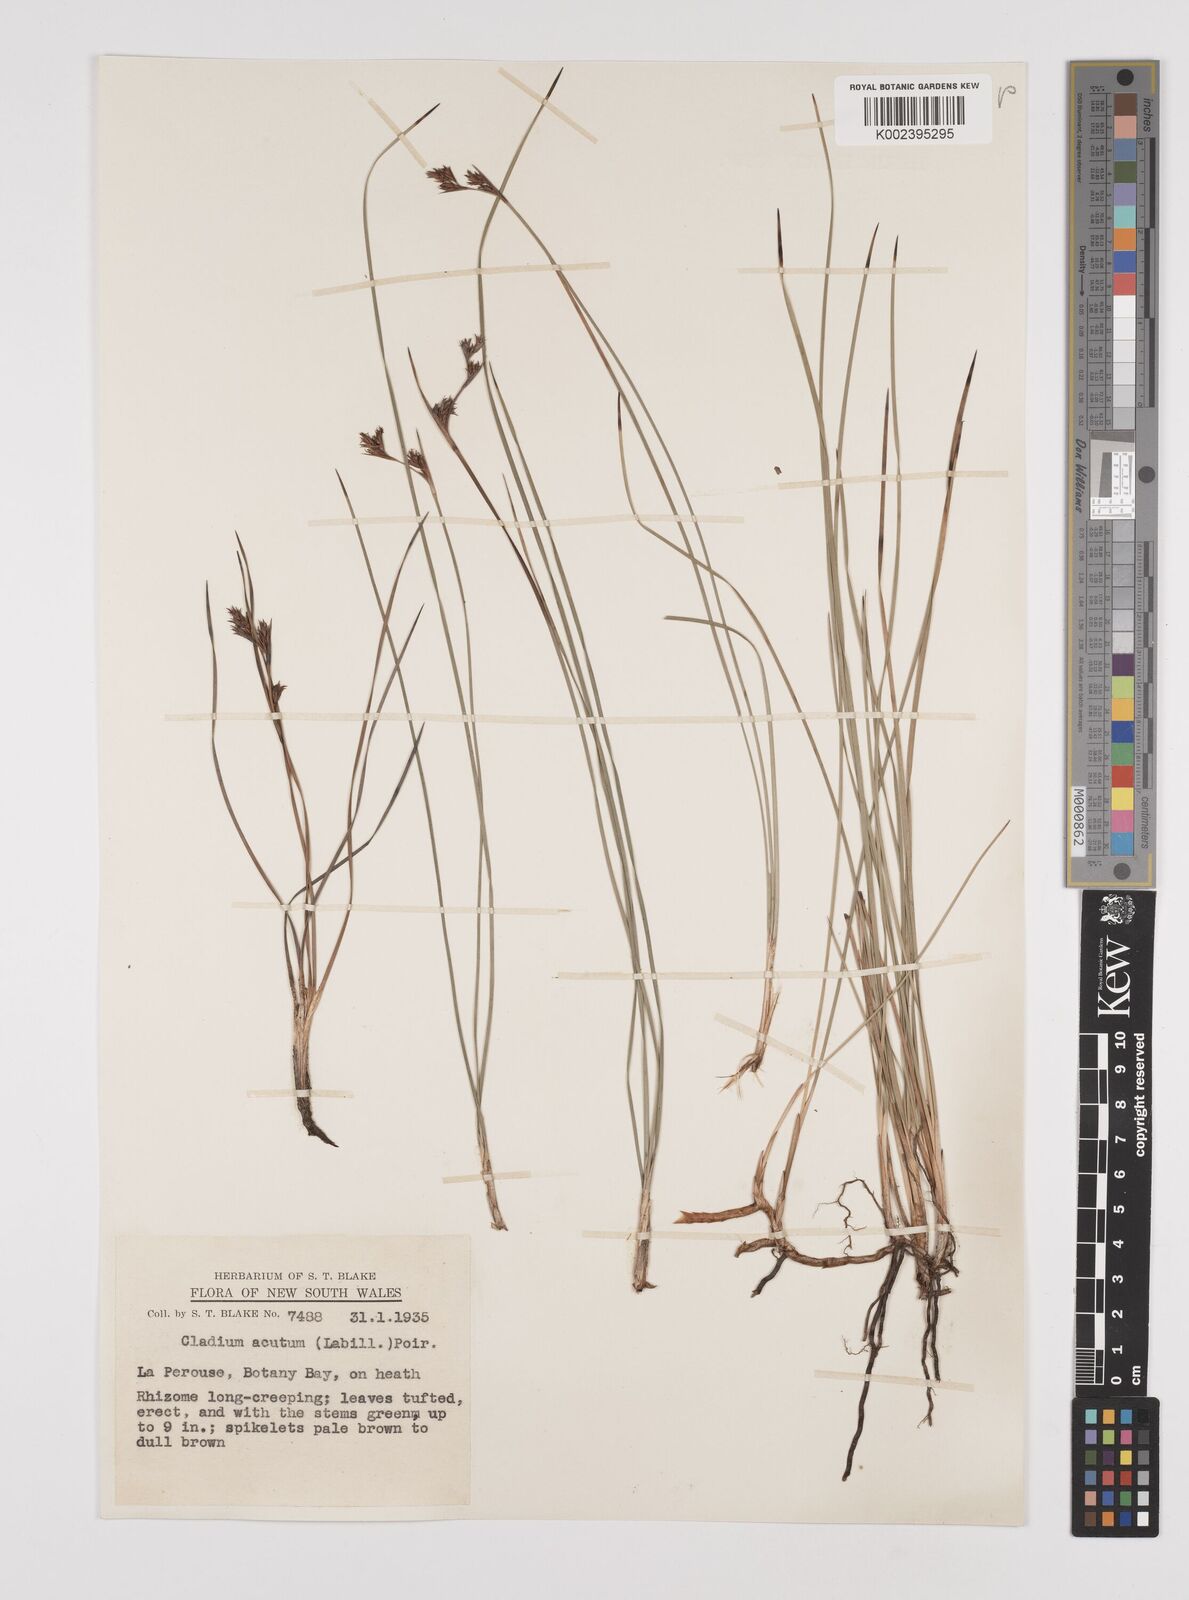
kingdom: Plantae
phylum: Tracheophyta
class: Liliopsida
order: Poales
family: Cyperaceae
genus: Machaerina
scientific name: Machaerina acuta
